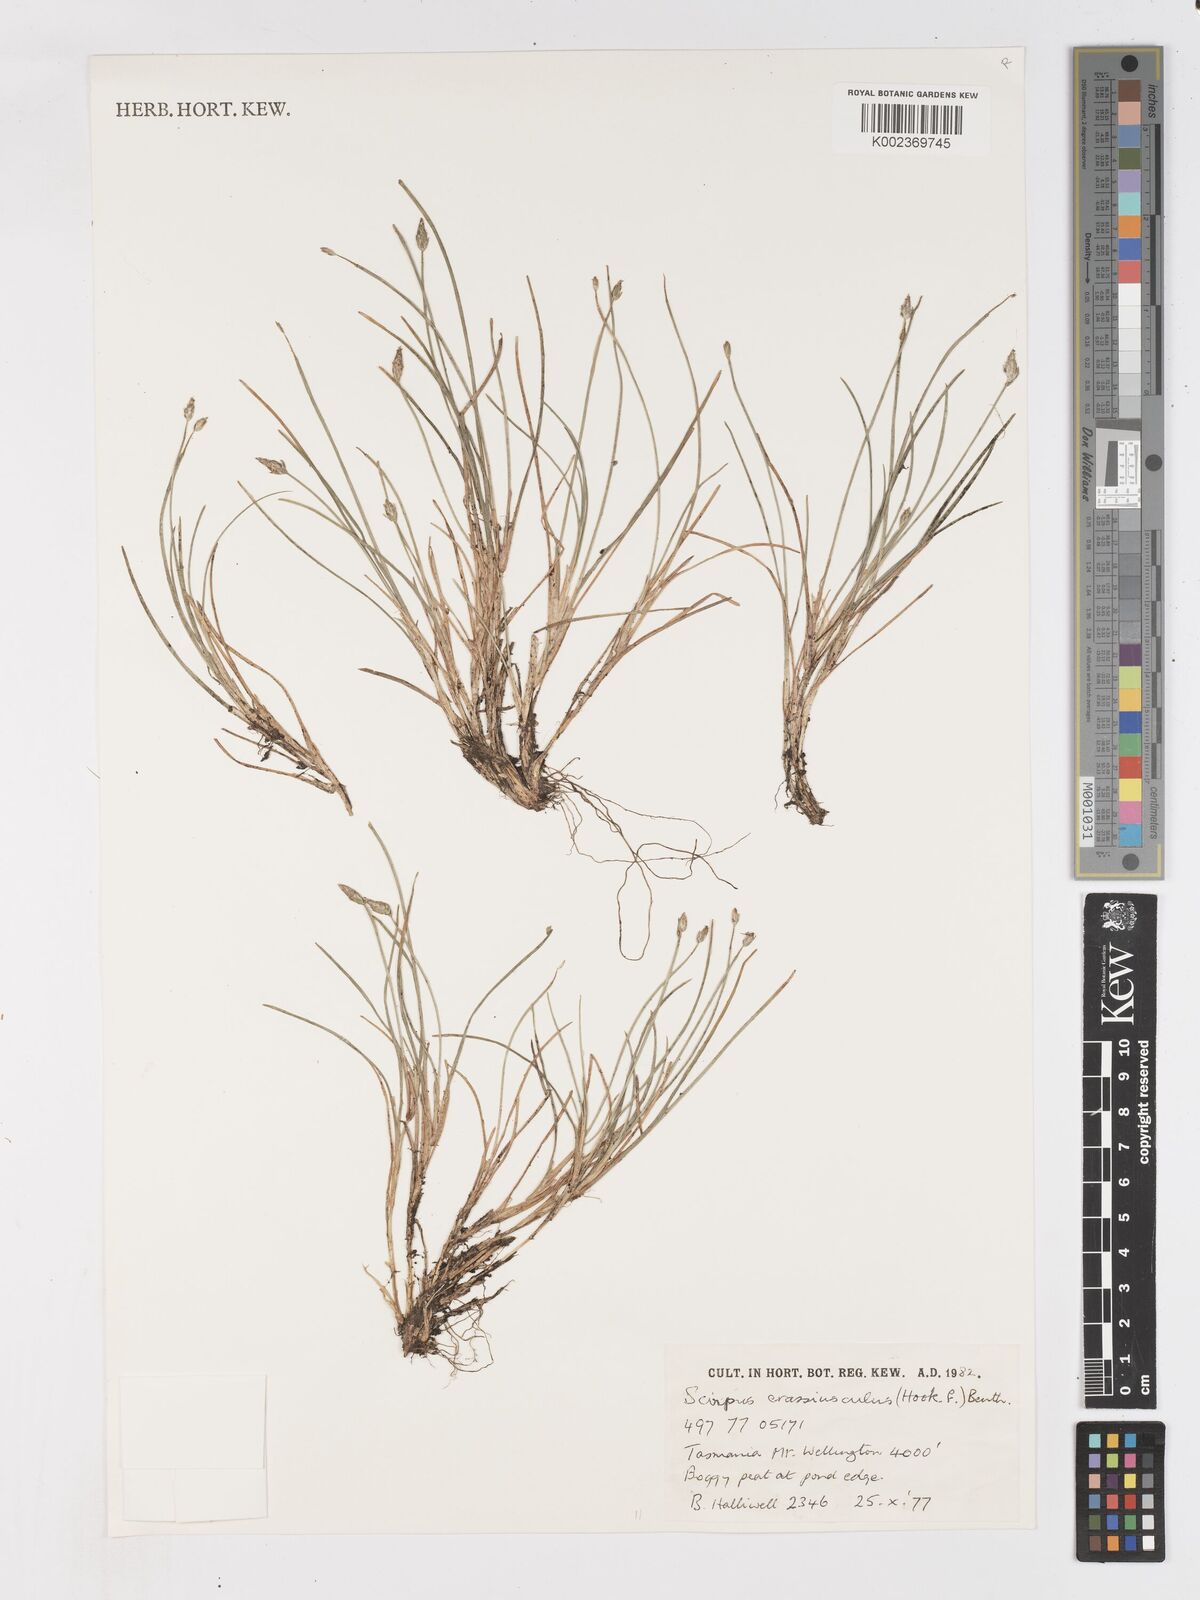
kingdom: Plantae
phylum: Tracheophyta
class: Liliopsida
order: Poales
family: Cyperaceae
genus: Isolepis
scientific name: Isolepis crassiuscula
